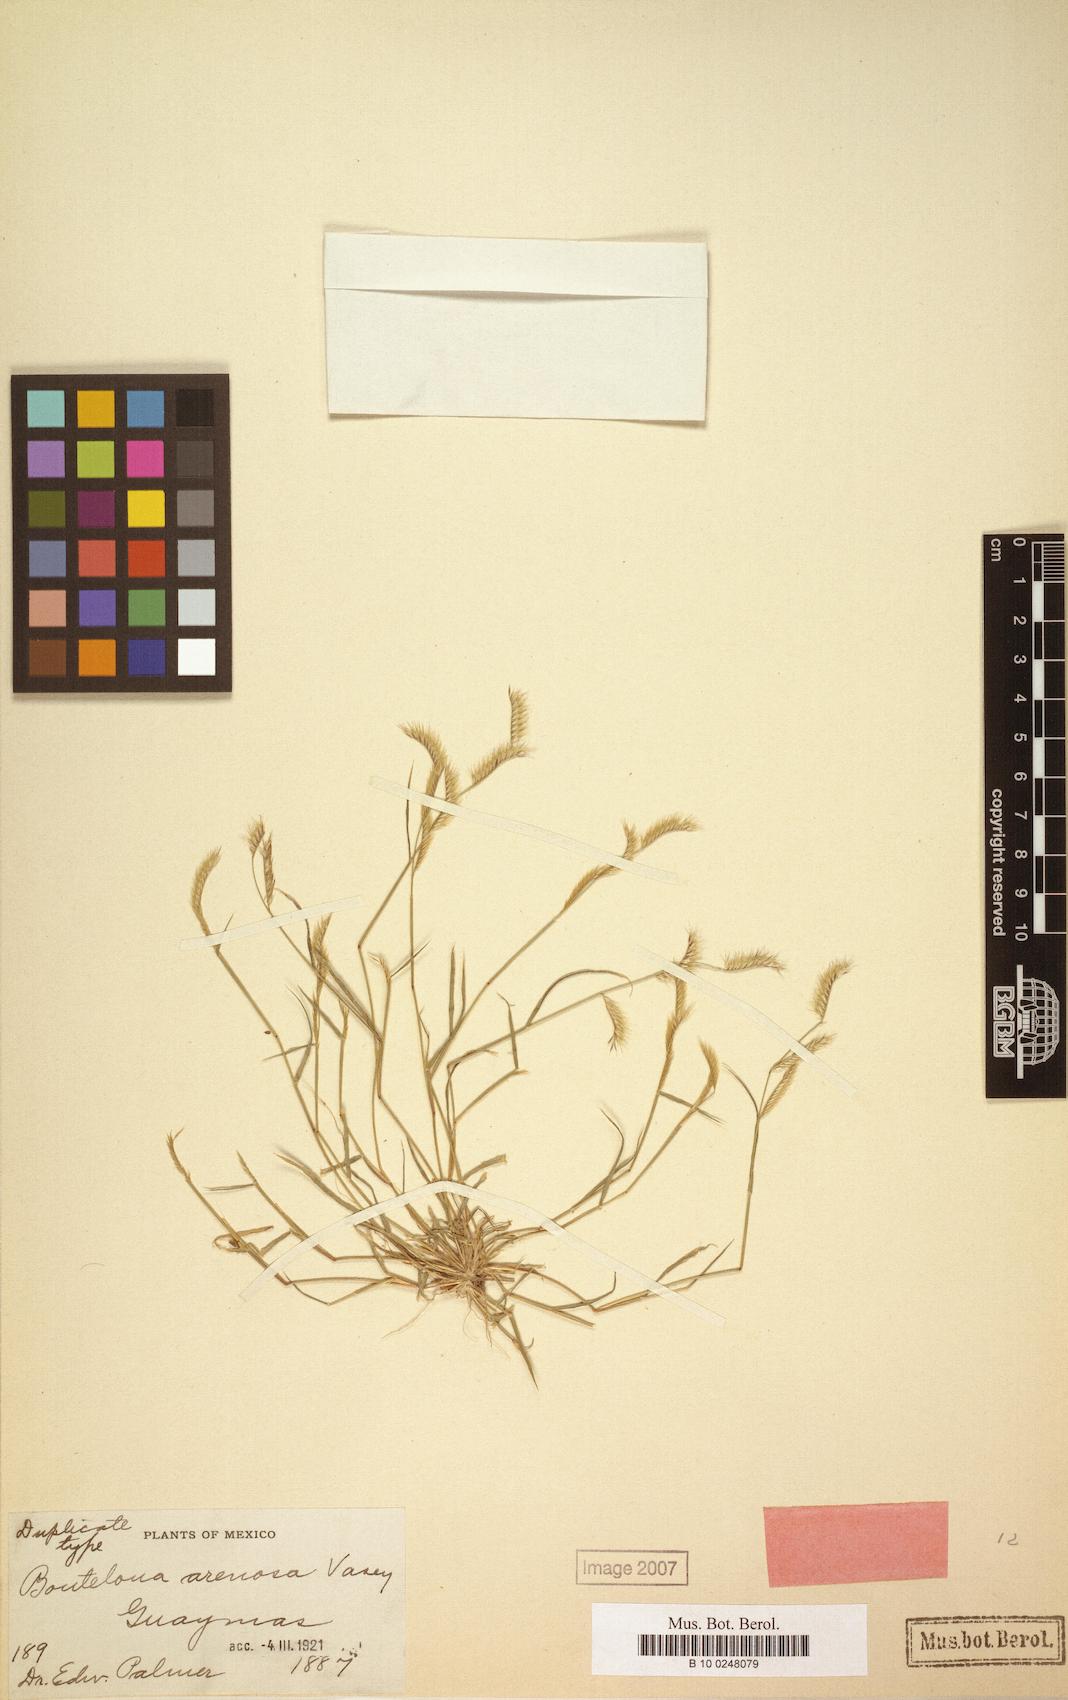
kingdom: Plantae
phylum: Tracheophyta
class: Liliopsida
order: Poales
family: Poaceae
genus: Bouteloua
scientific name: Bouteloua barbata
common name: Six-weeks grama
